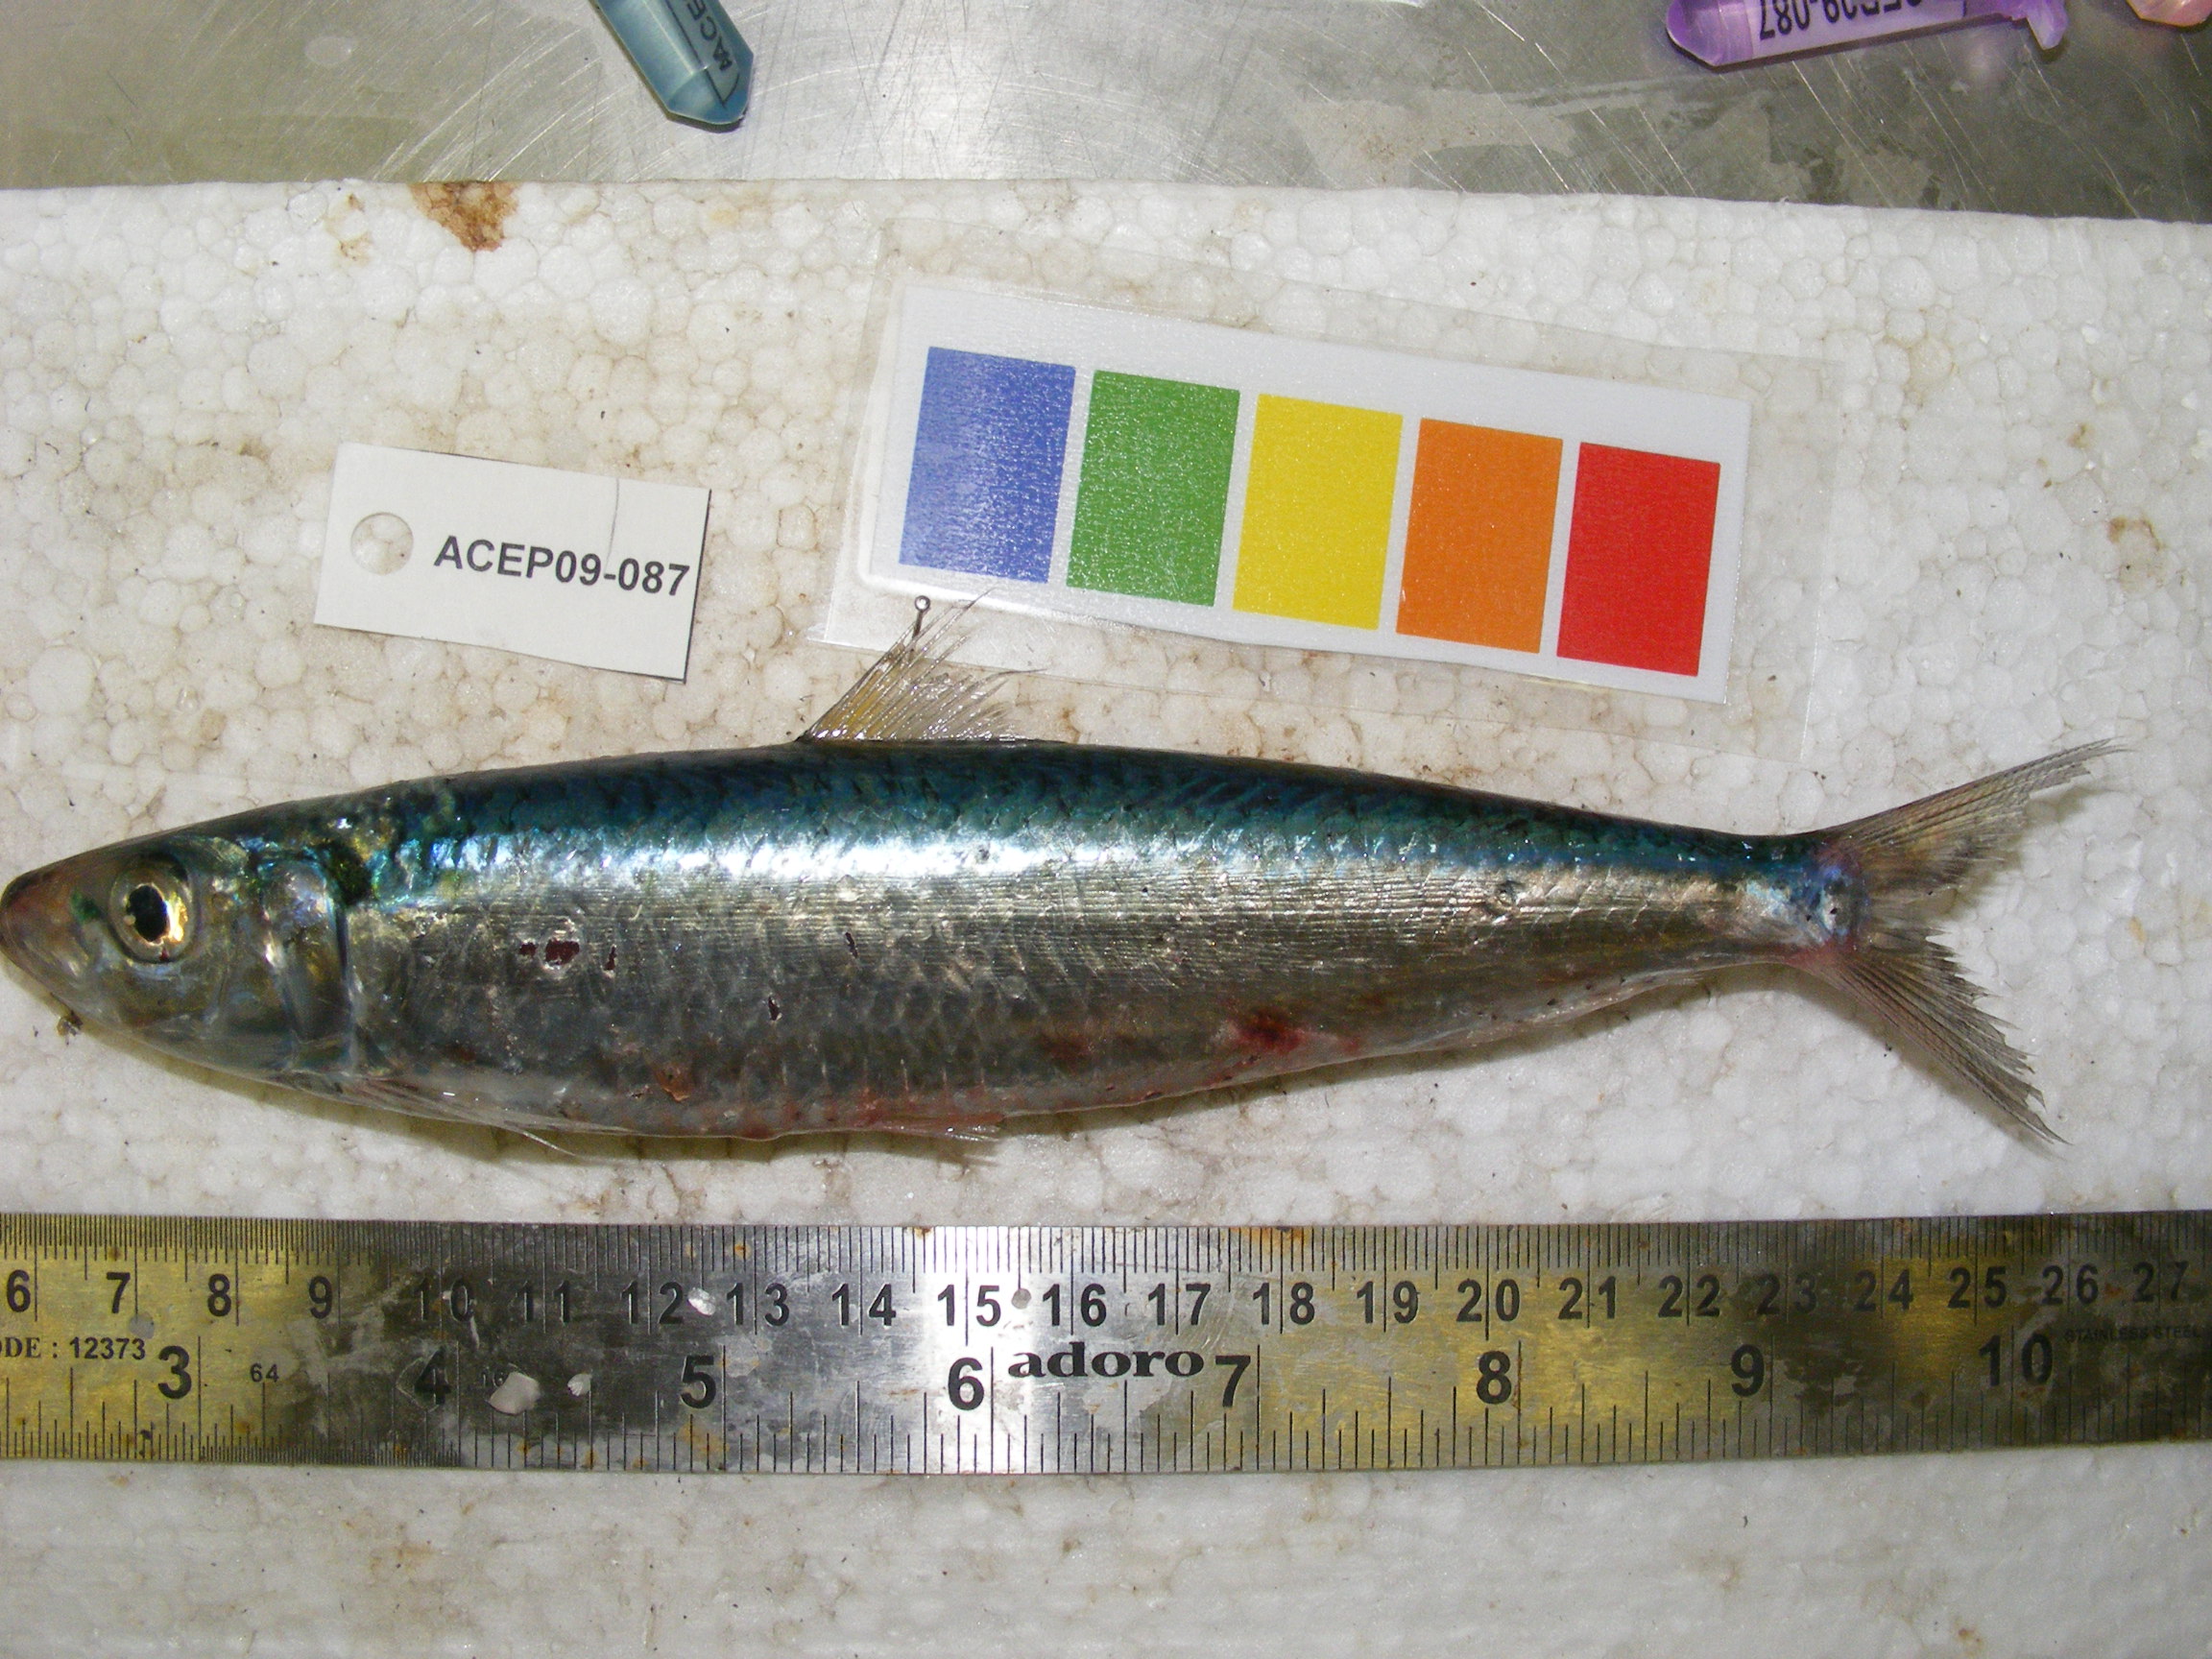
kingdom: Animalia
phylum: Chordata
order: Clupeiformes
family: Clupeidae
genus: Sardinella
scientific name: Sardinella
